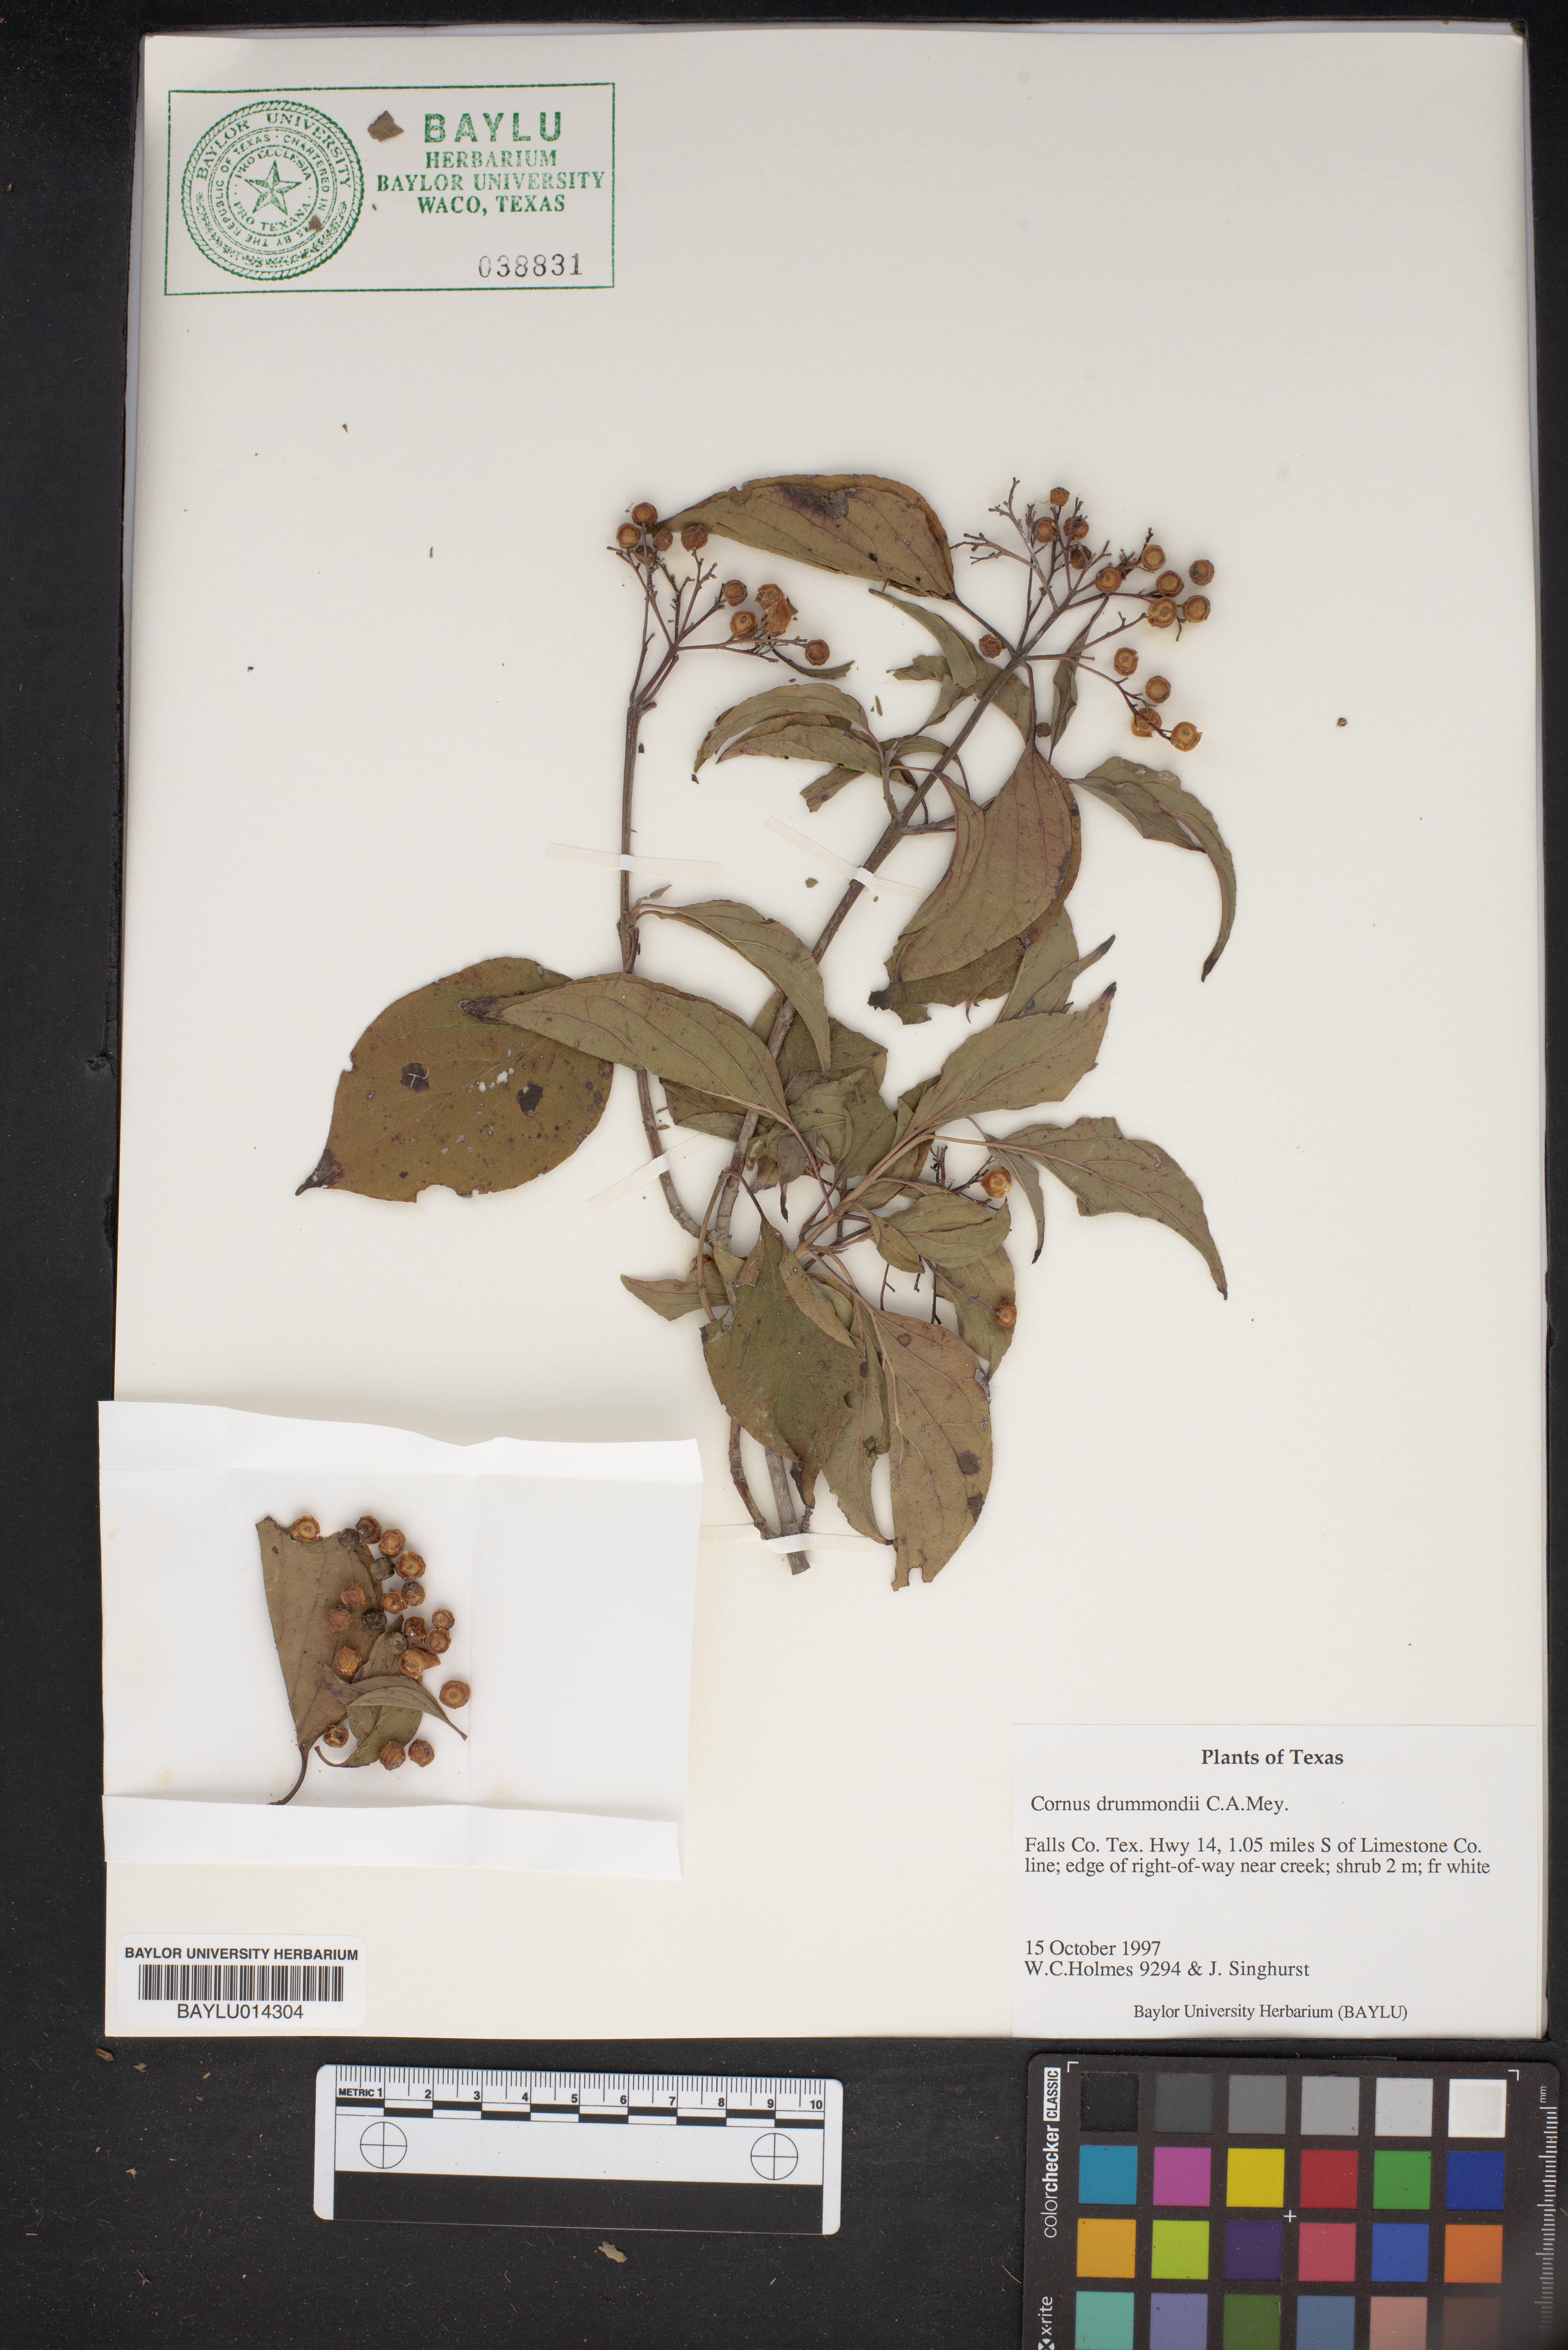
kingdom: Plantae
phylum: Tracheophyta
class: Magnoliopsida
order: Cornales
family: Cornaceae
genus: Cornus
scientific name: Cornus drummondii
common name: Rough-leaf dogwood
